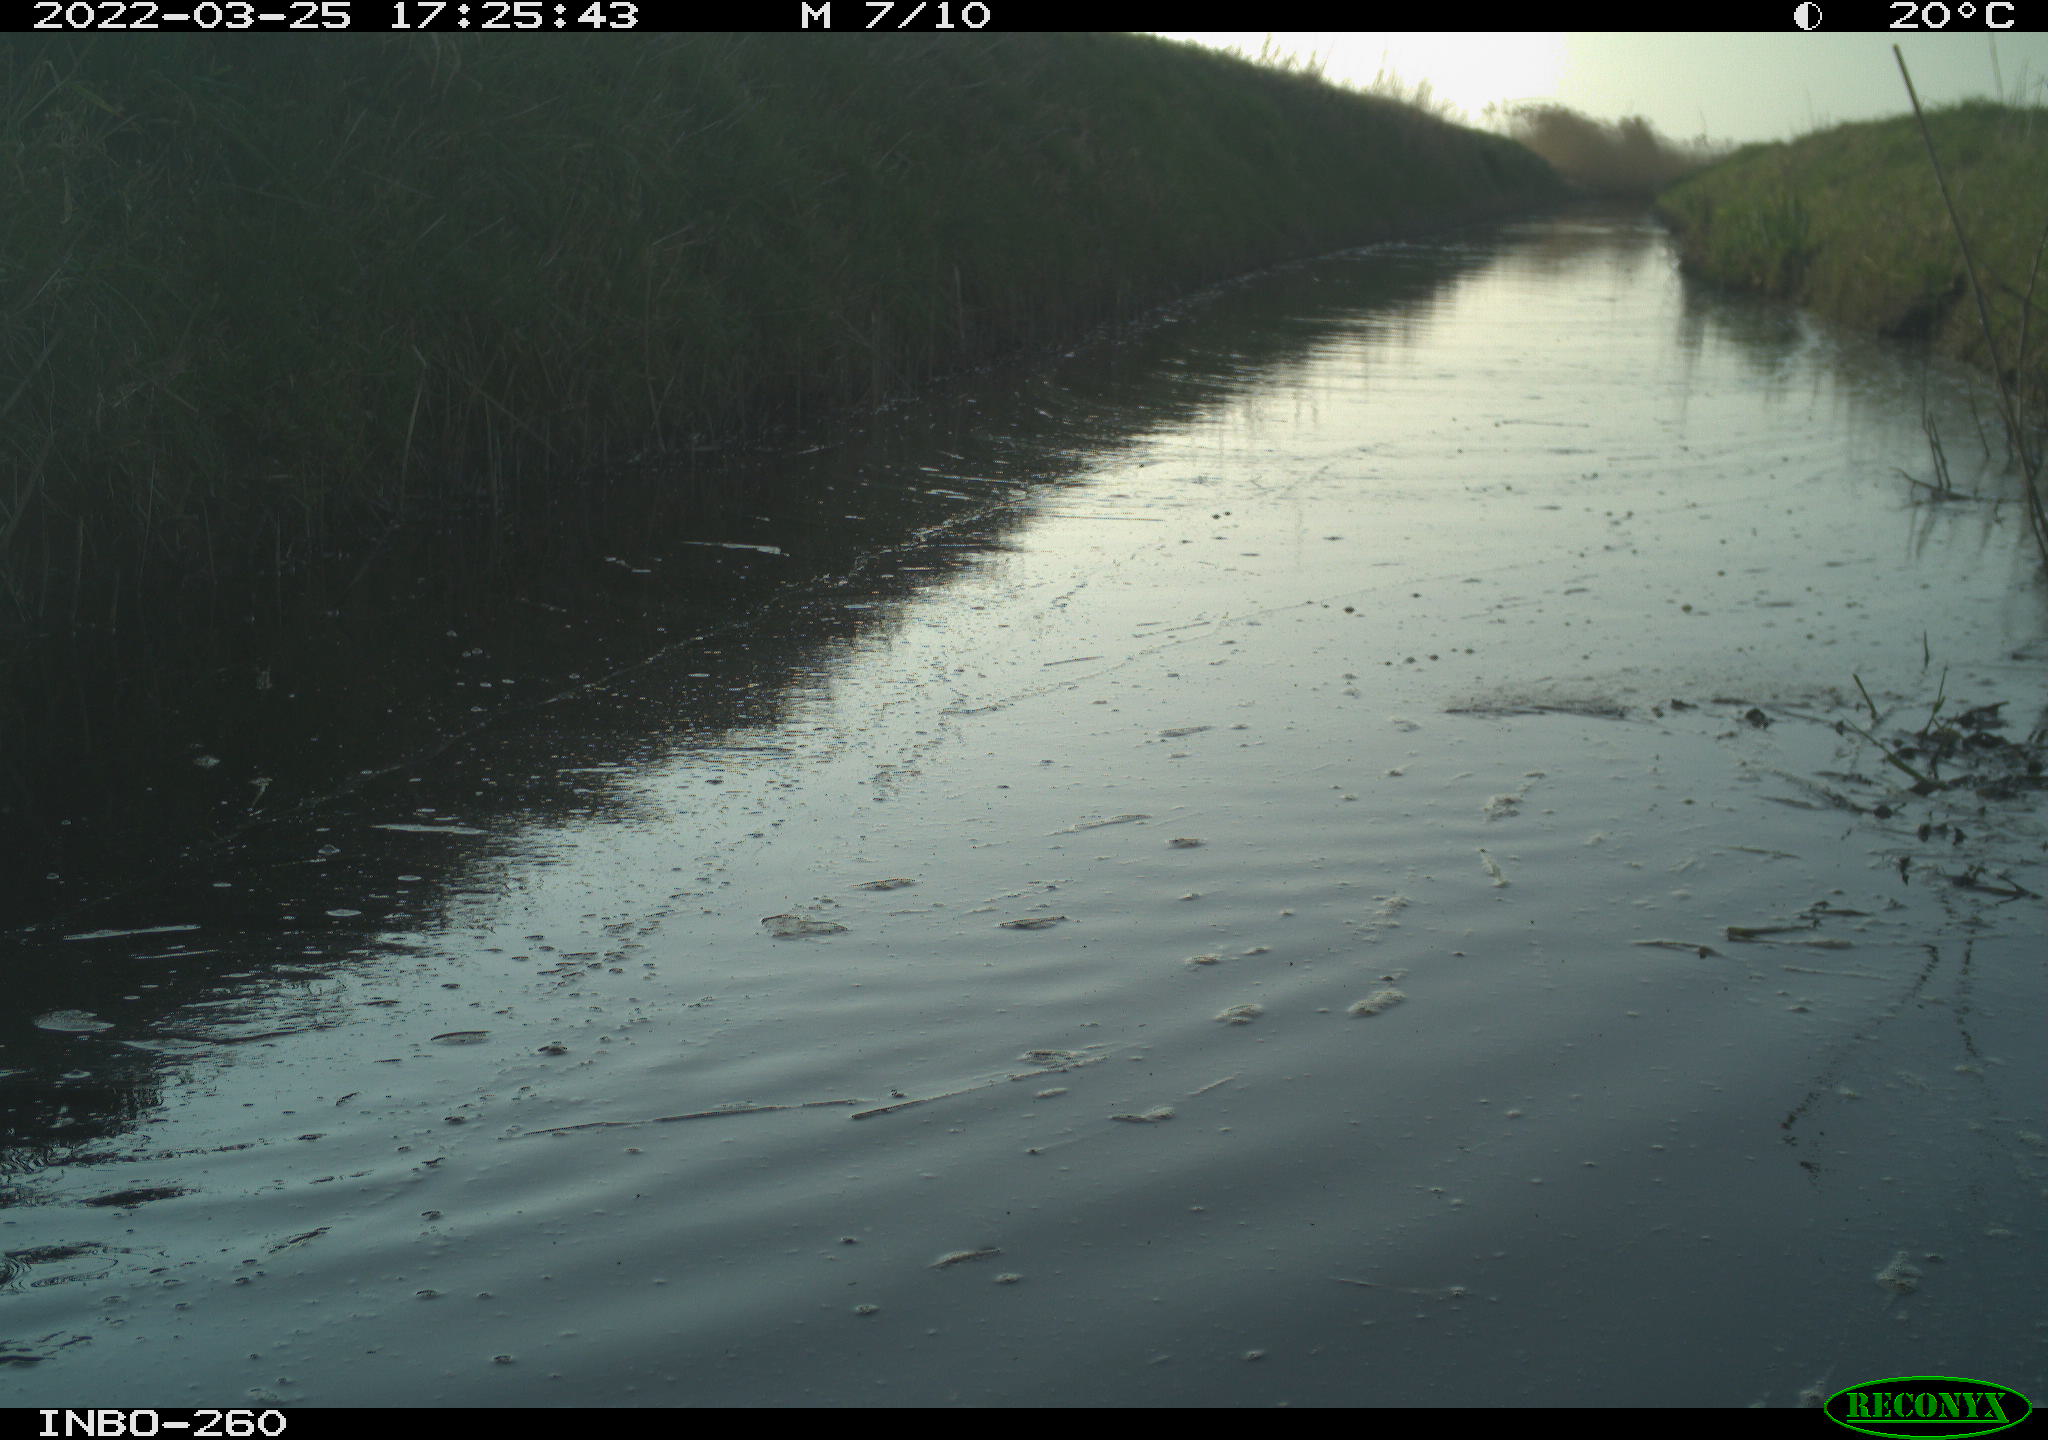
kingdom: Animalia
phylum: Chordata
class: Aves
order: Gruiformes
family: Rallidae
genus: Fulica
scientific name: Fulica atra
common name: Eurasian coot
